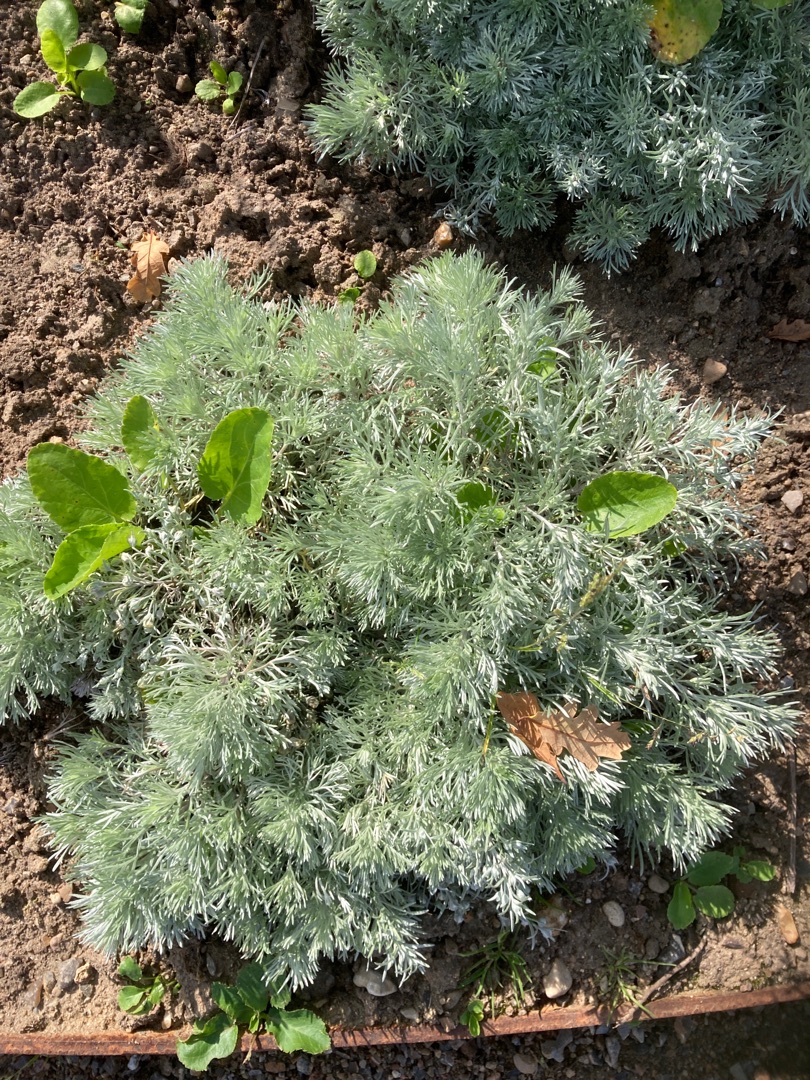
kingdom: Plantae
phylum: Tracheophyta
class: Magnoliopsida
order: Asterales
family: Asteraceae
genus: Artemisia
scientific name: Artemisia maritima
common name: Strandmalurt
